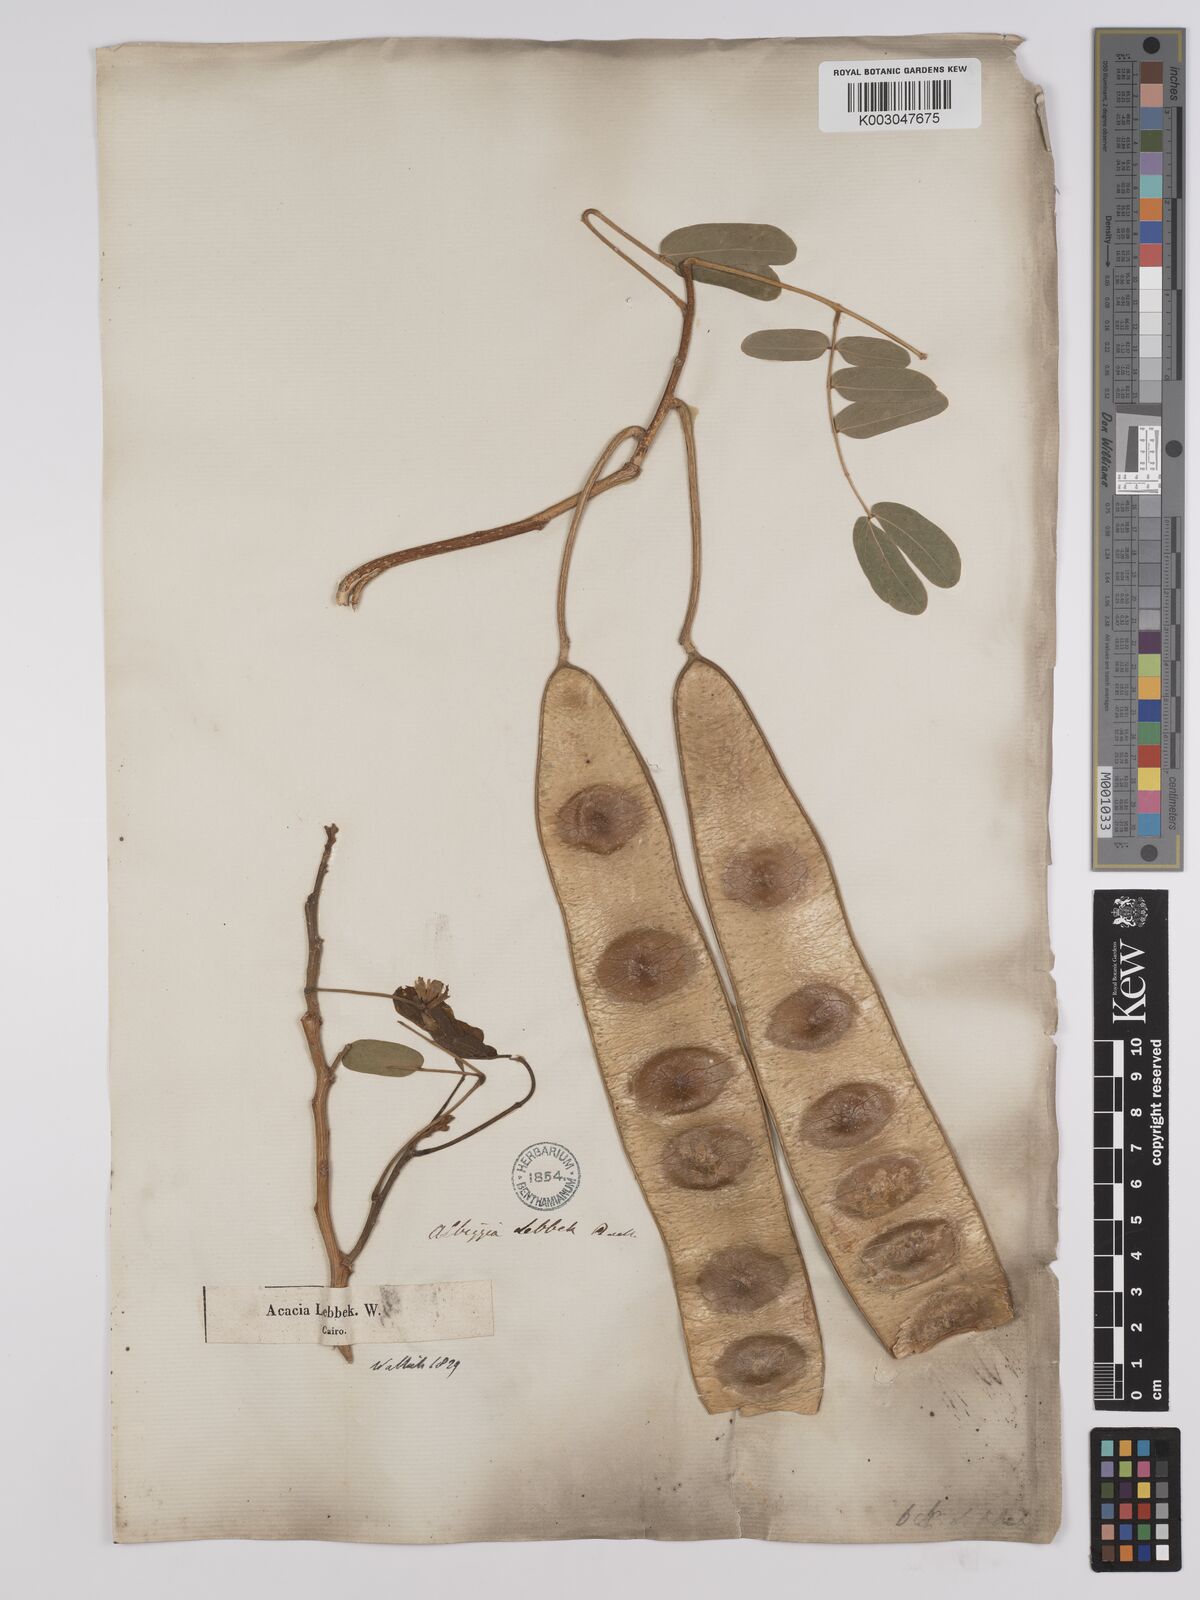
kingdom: Plantae
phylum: Tracheophyta
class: Magnoliopsida
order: Fabales
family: Fabaceae
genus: Albizia
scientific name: Albizia lebbeck
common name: Woman's tongue
